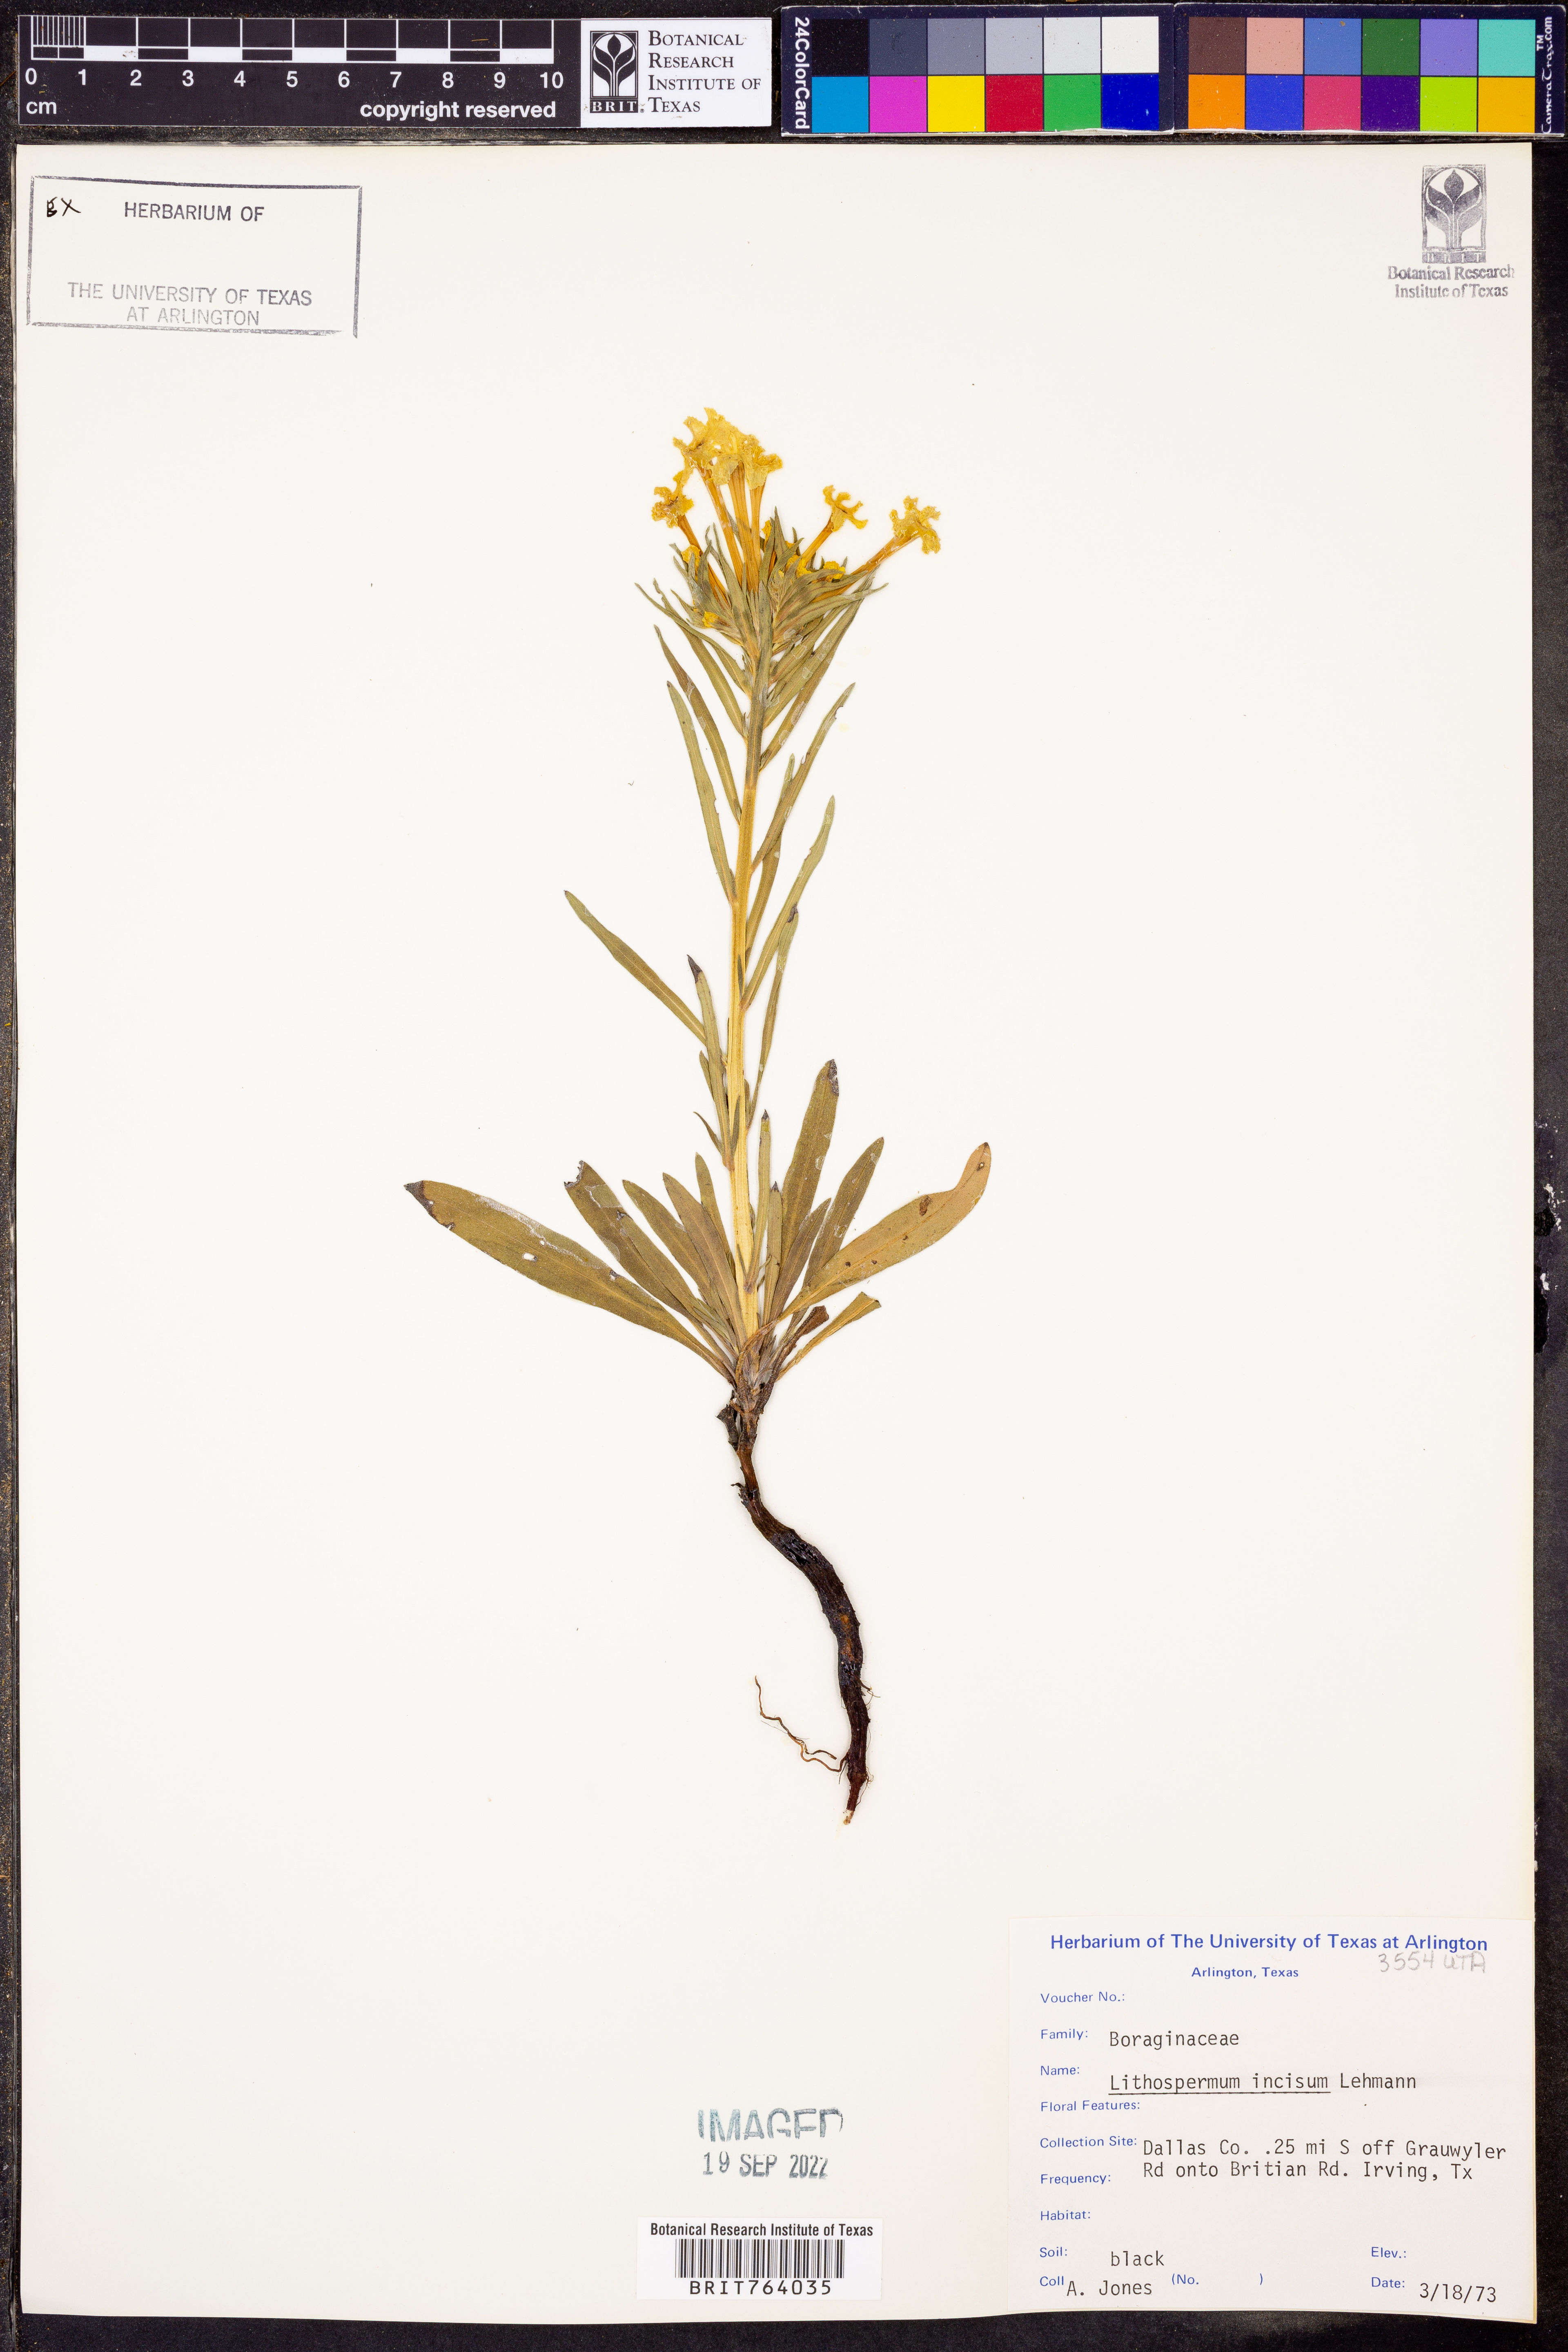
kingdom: Plantae
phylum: Tracheophyta
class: Magnoliopsida
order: Boraginales
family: Boraginaceae
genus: Lithospermum
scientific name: Lithospermum incisum
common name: Fringed gromwell
